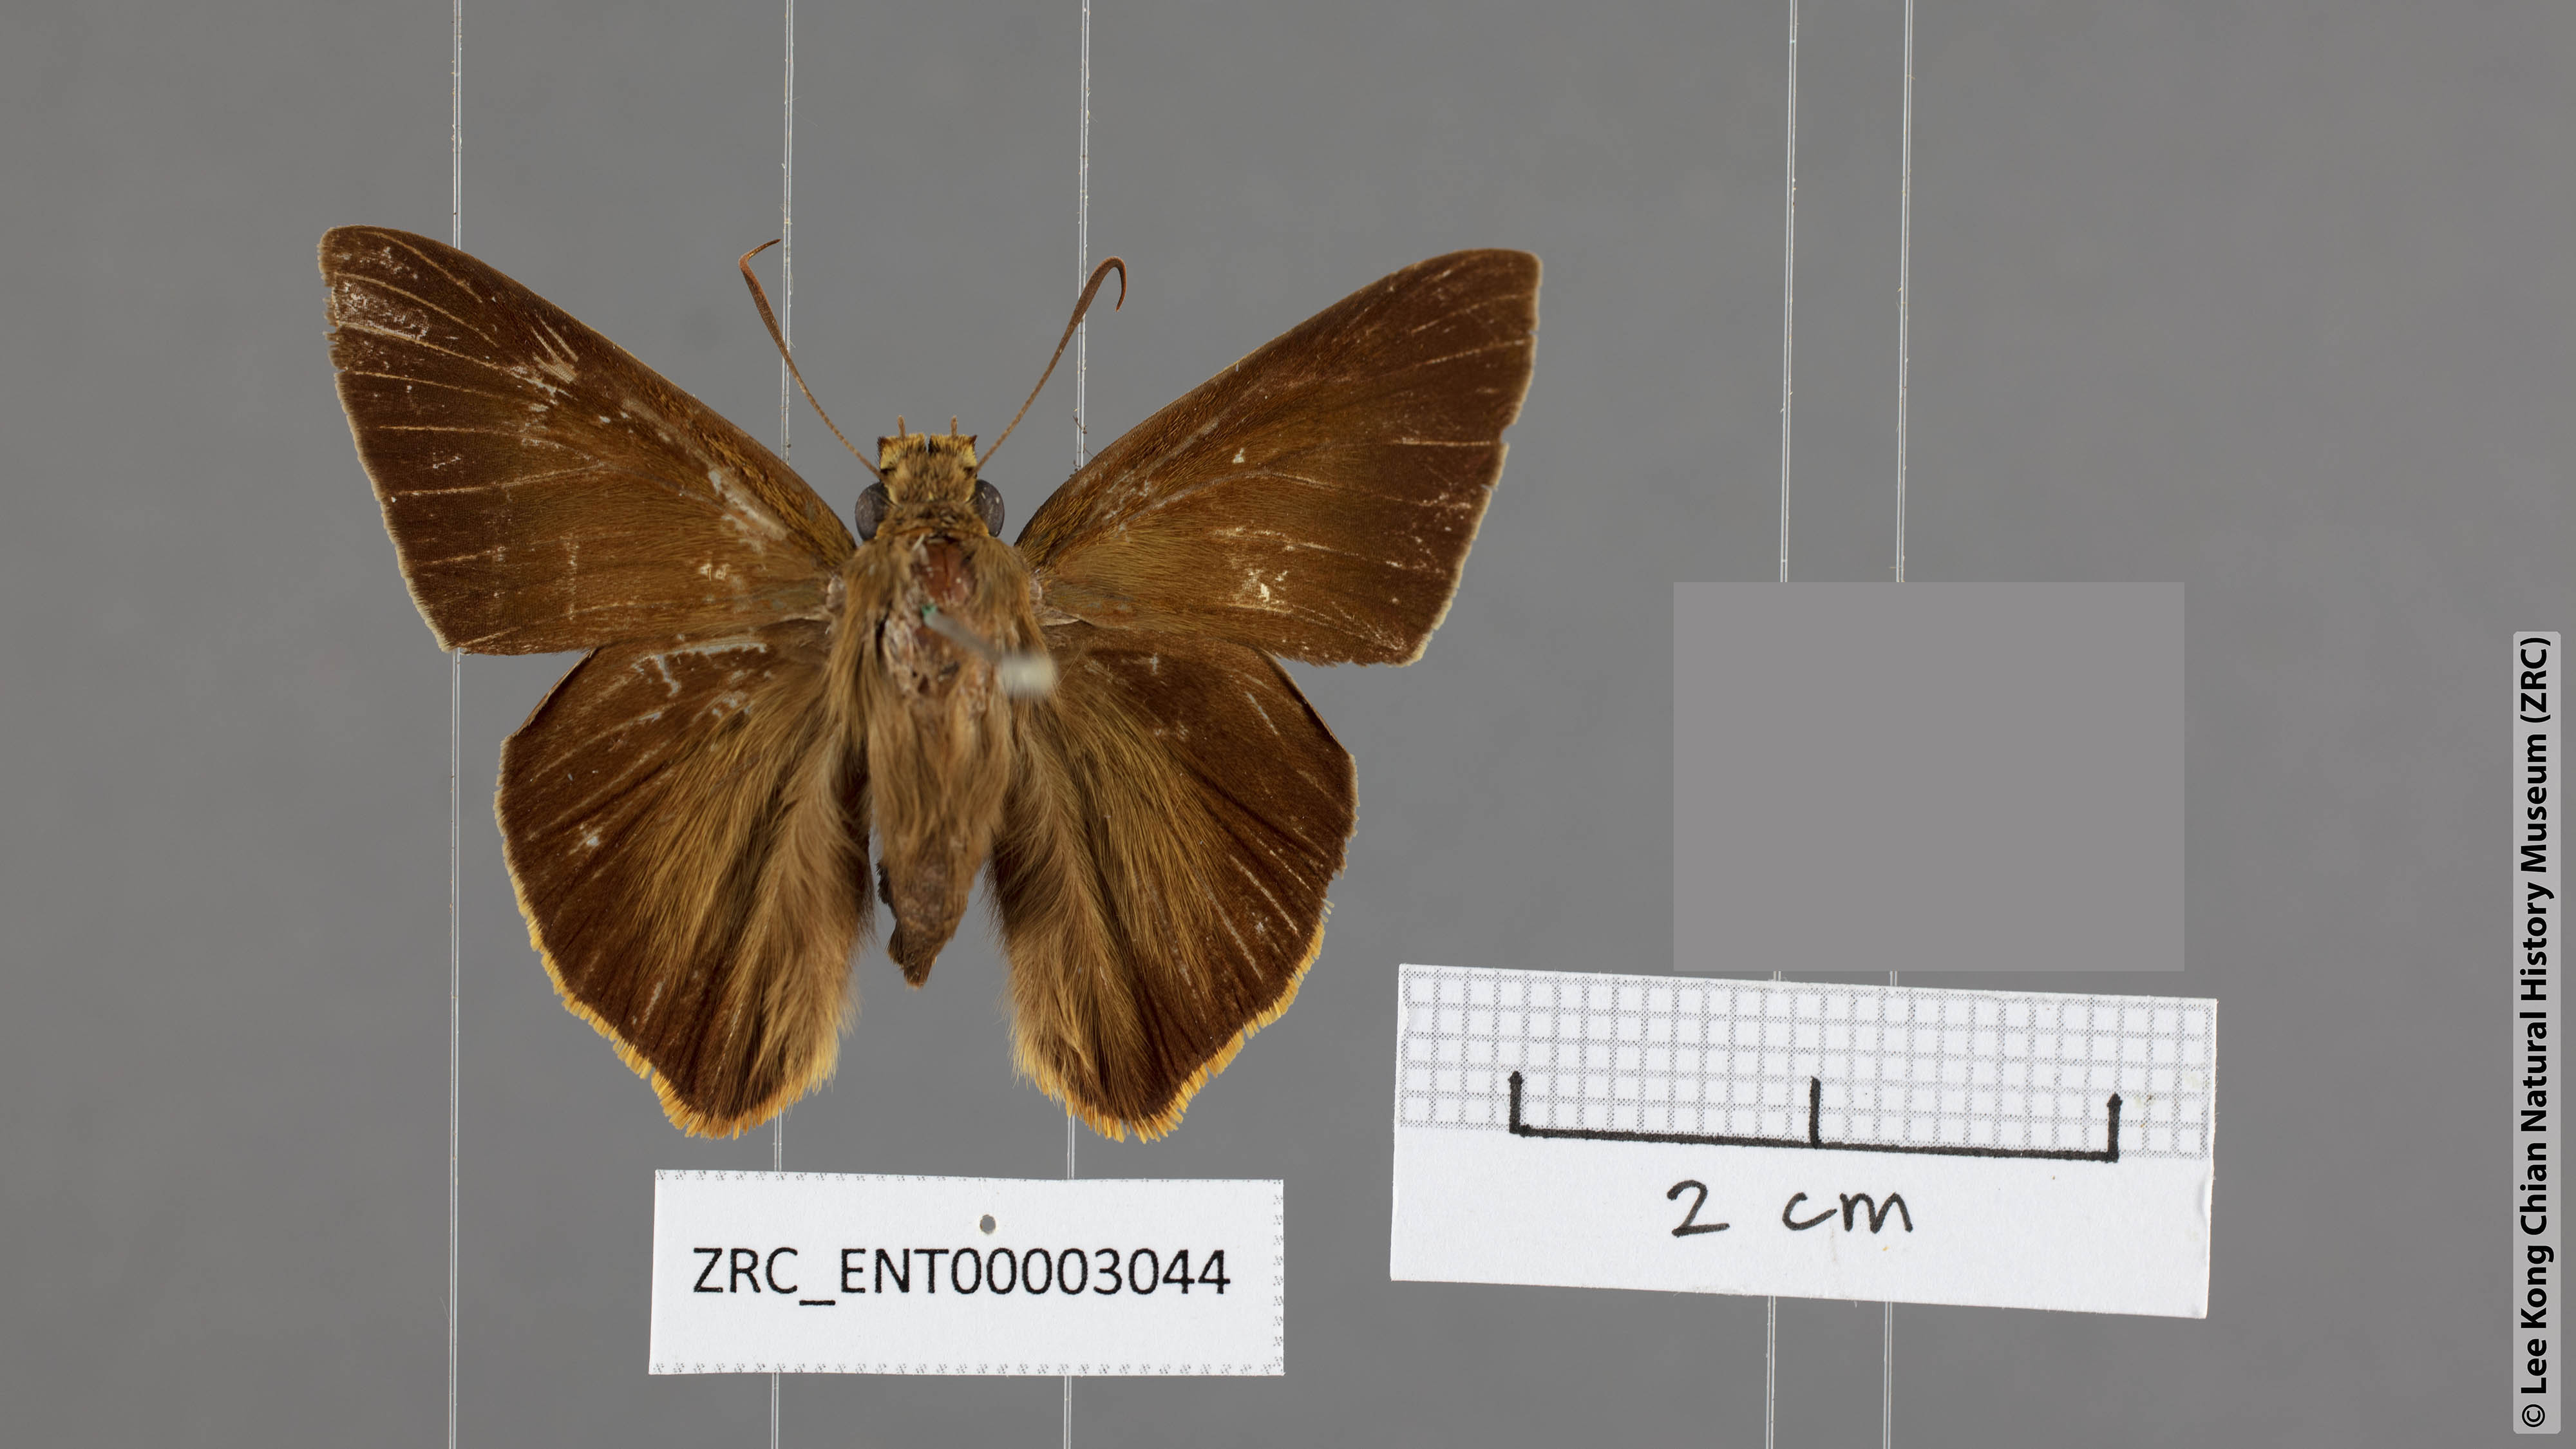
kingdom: Animalia
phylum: Arthropoda
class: Insecta
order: Lepidoptera
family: Hesperiidae
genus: Bibasis
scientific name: Bibasis sena
